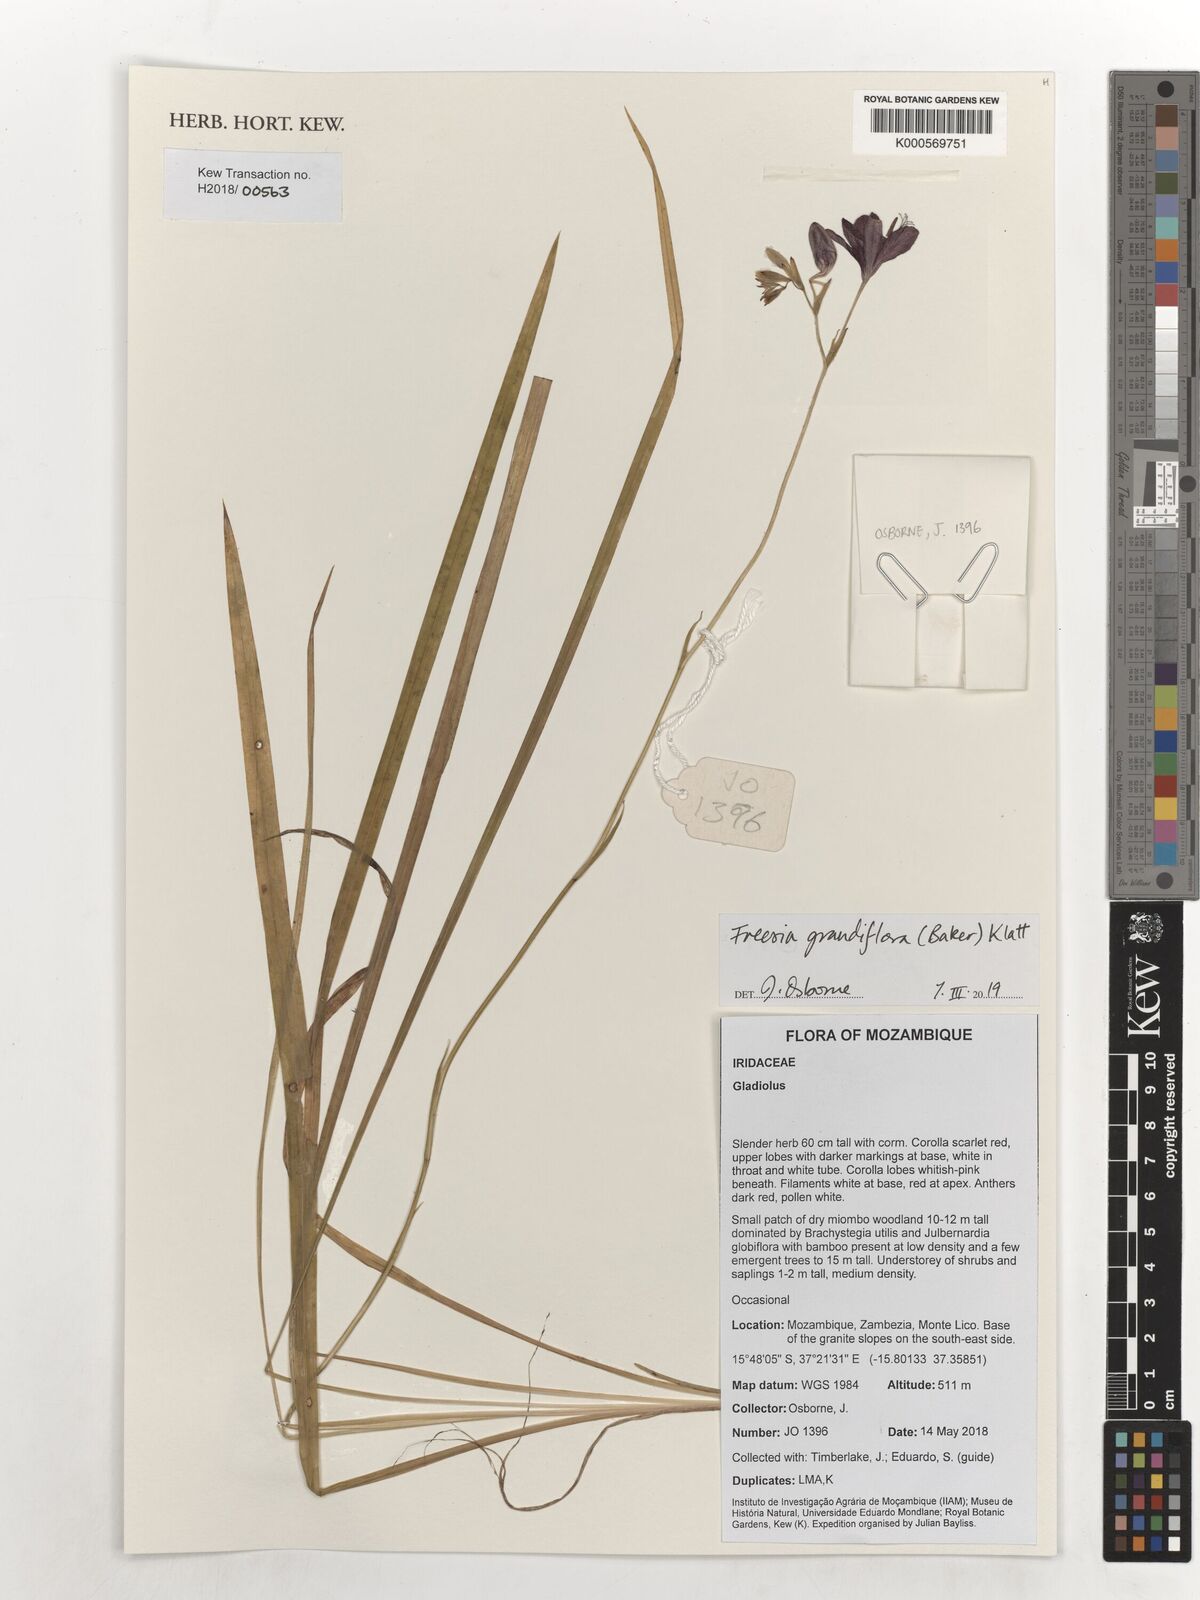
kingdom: Plantae
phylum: Tracheophyta
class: Liliopsida
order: Asparagales
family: Iridaceae
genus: Freesia
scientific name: Freesia grandiflora
